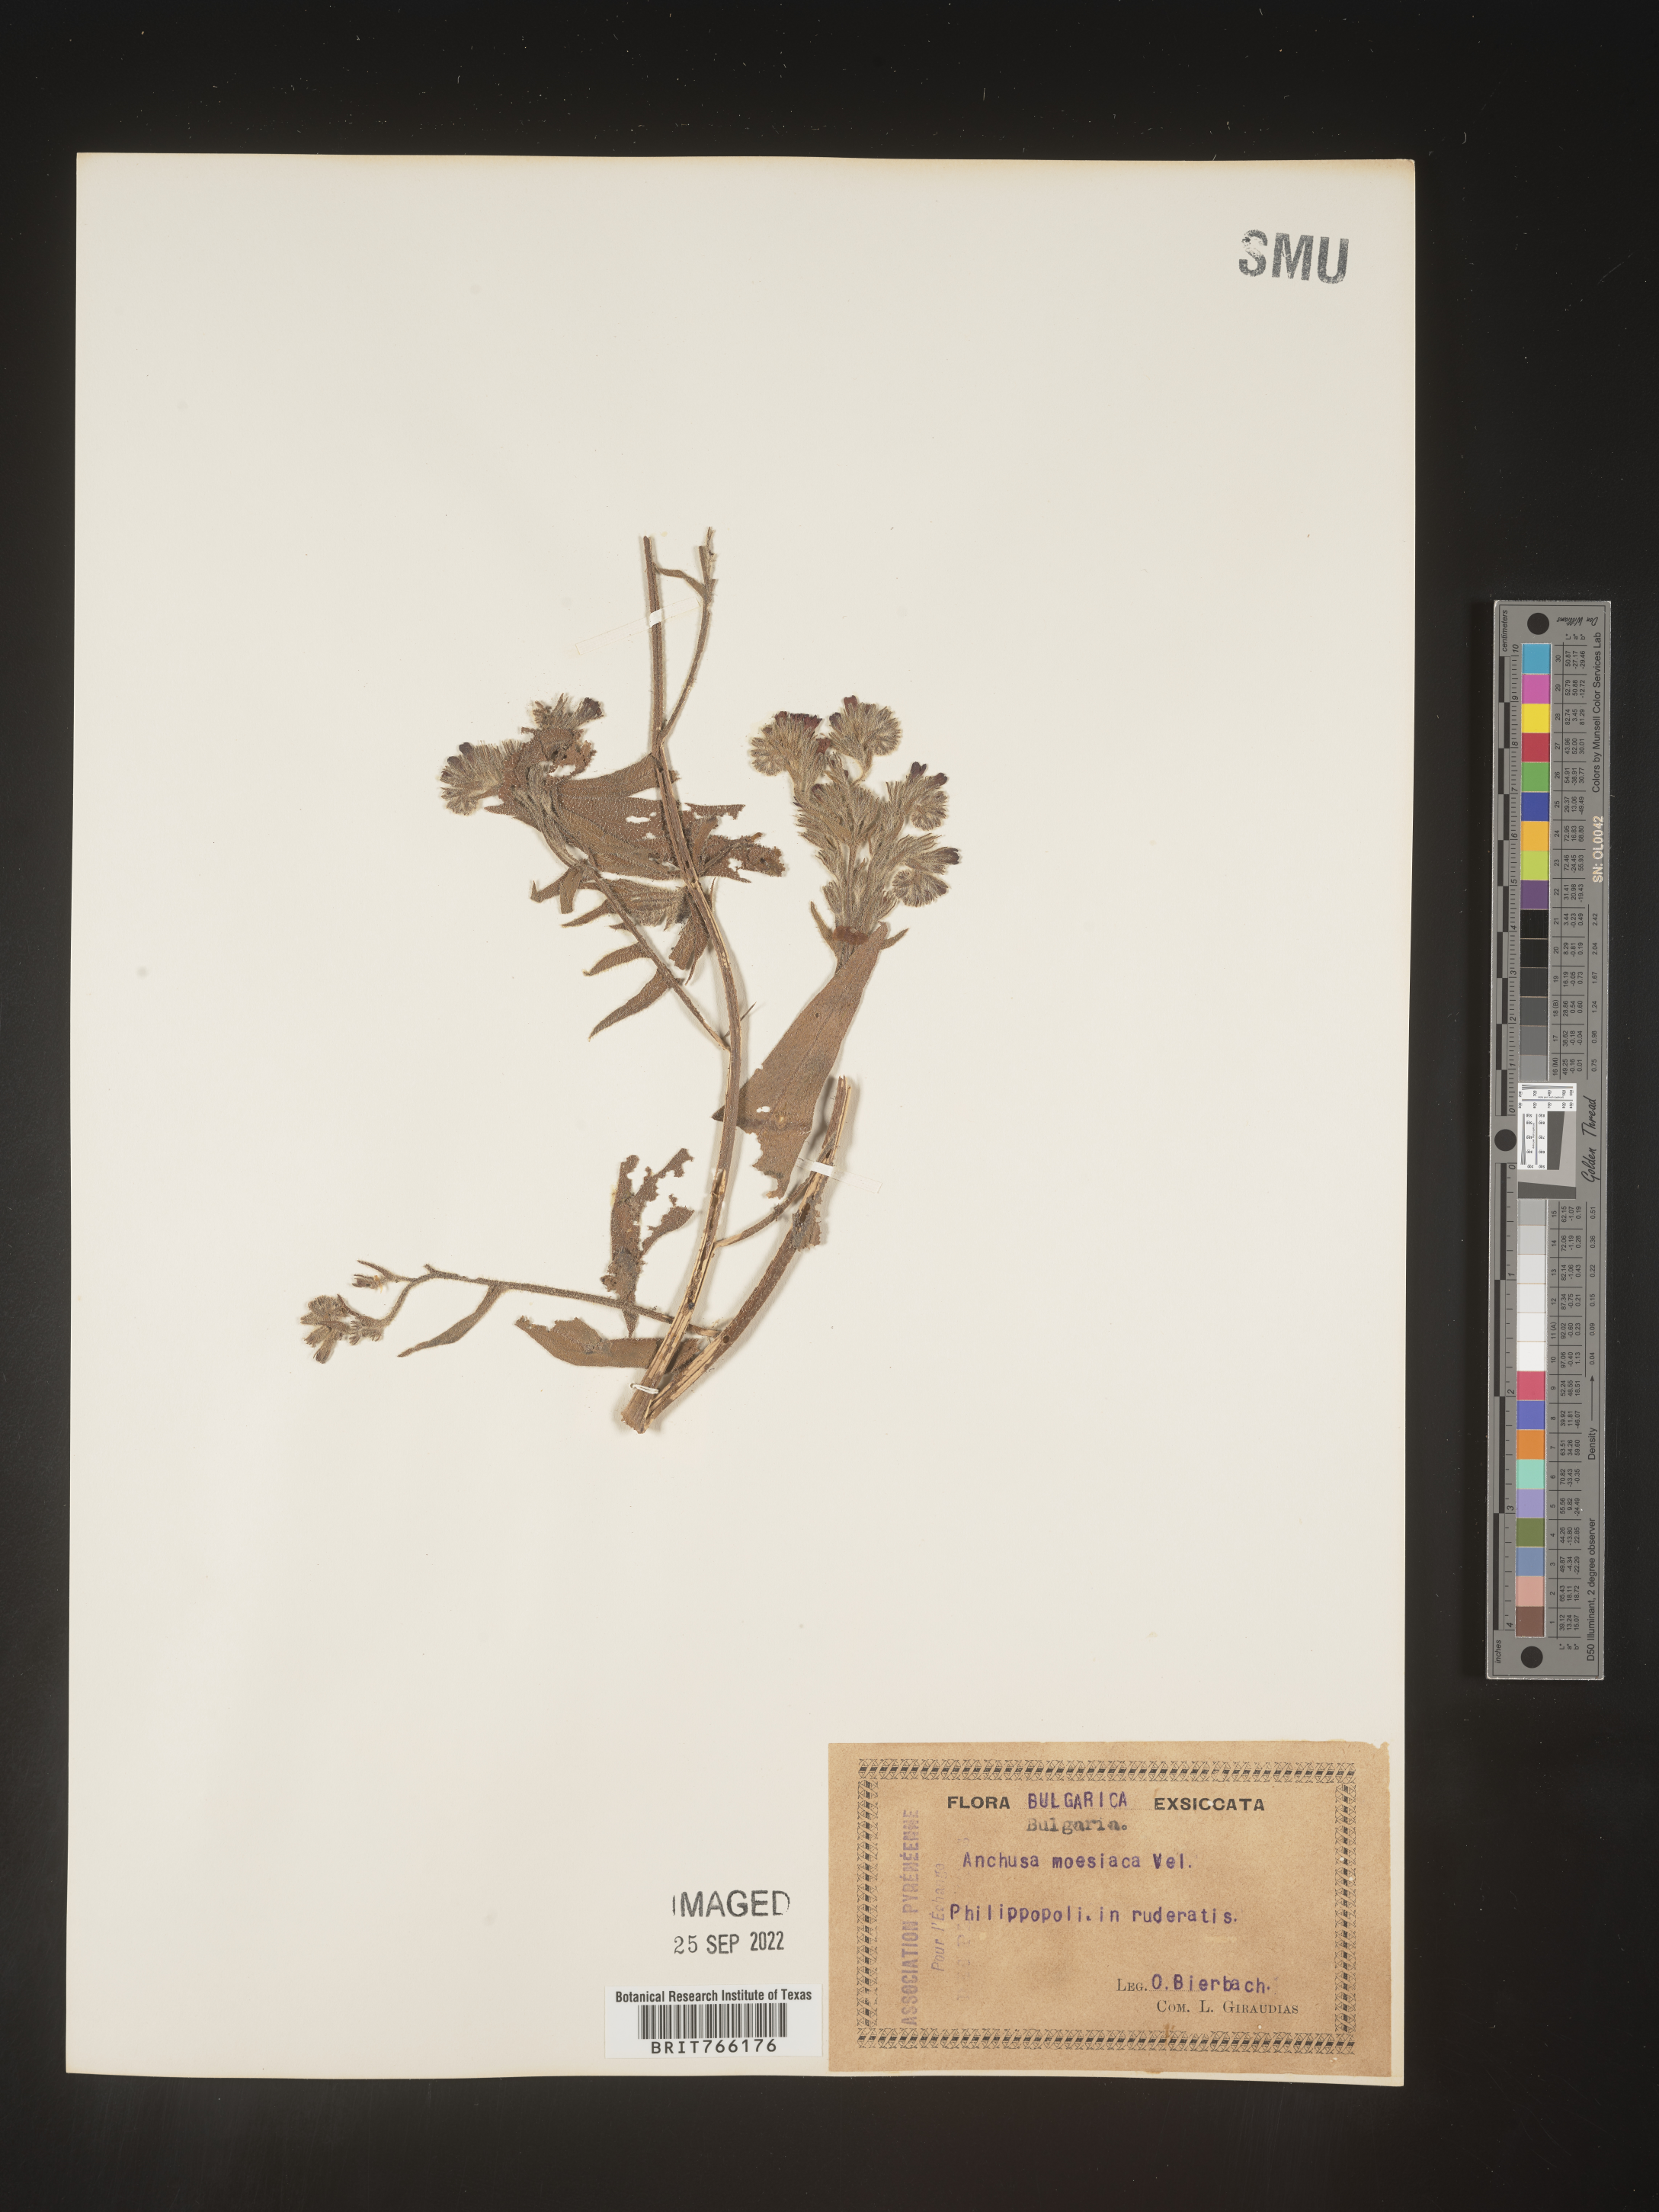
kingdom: Plantae
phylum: Tracheophyta
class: Magnoliopsida
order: Boraginales
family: Boraginaceae
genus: Anchusa
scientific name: Anchusa
